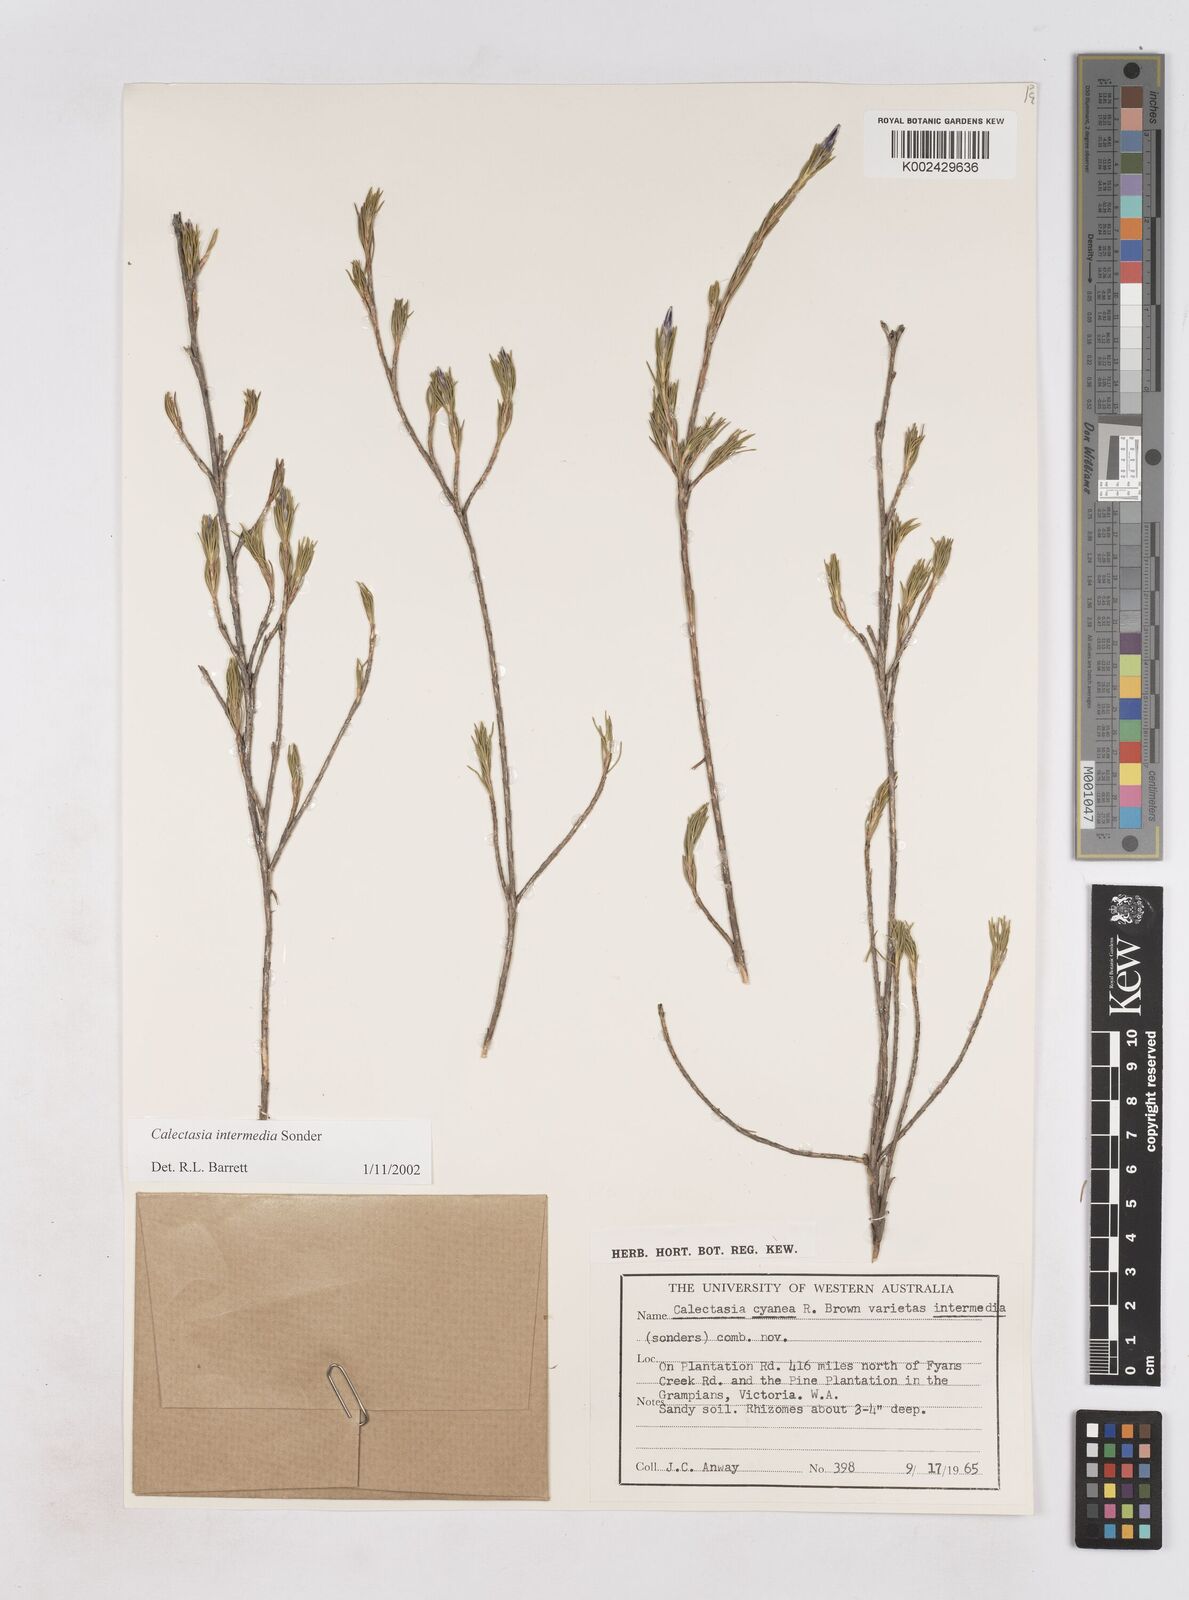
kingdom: Plantae
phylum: Tracheophyta
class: Liliopsida
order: Arecales
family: Dasypogonaceae
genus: Calectasia
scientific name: Calectasia intermedia
